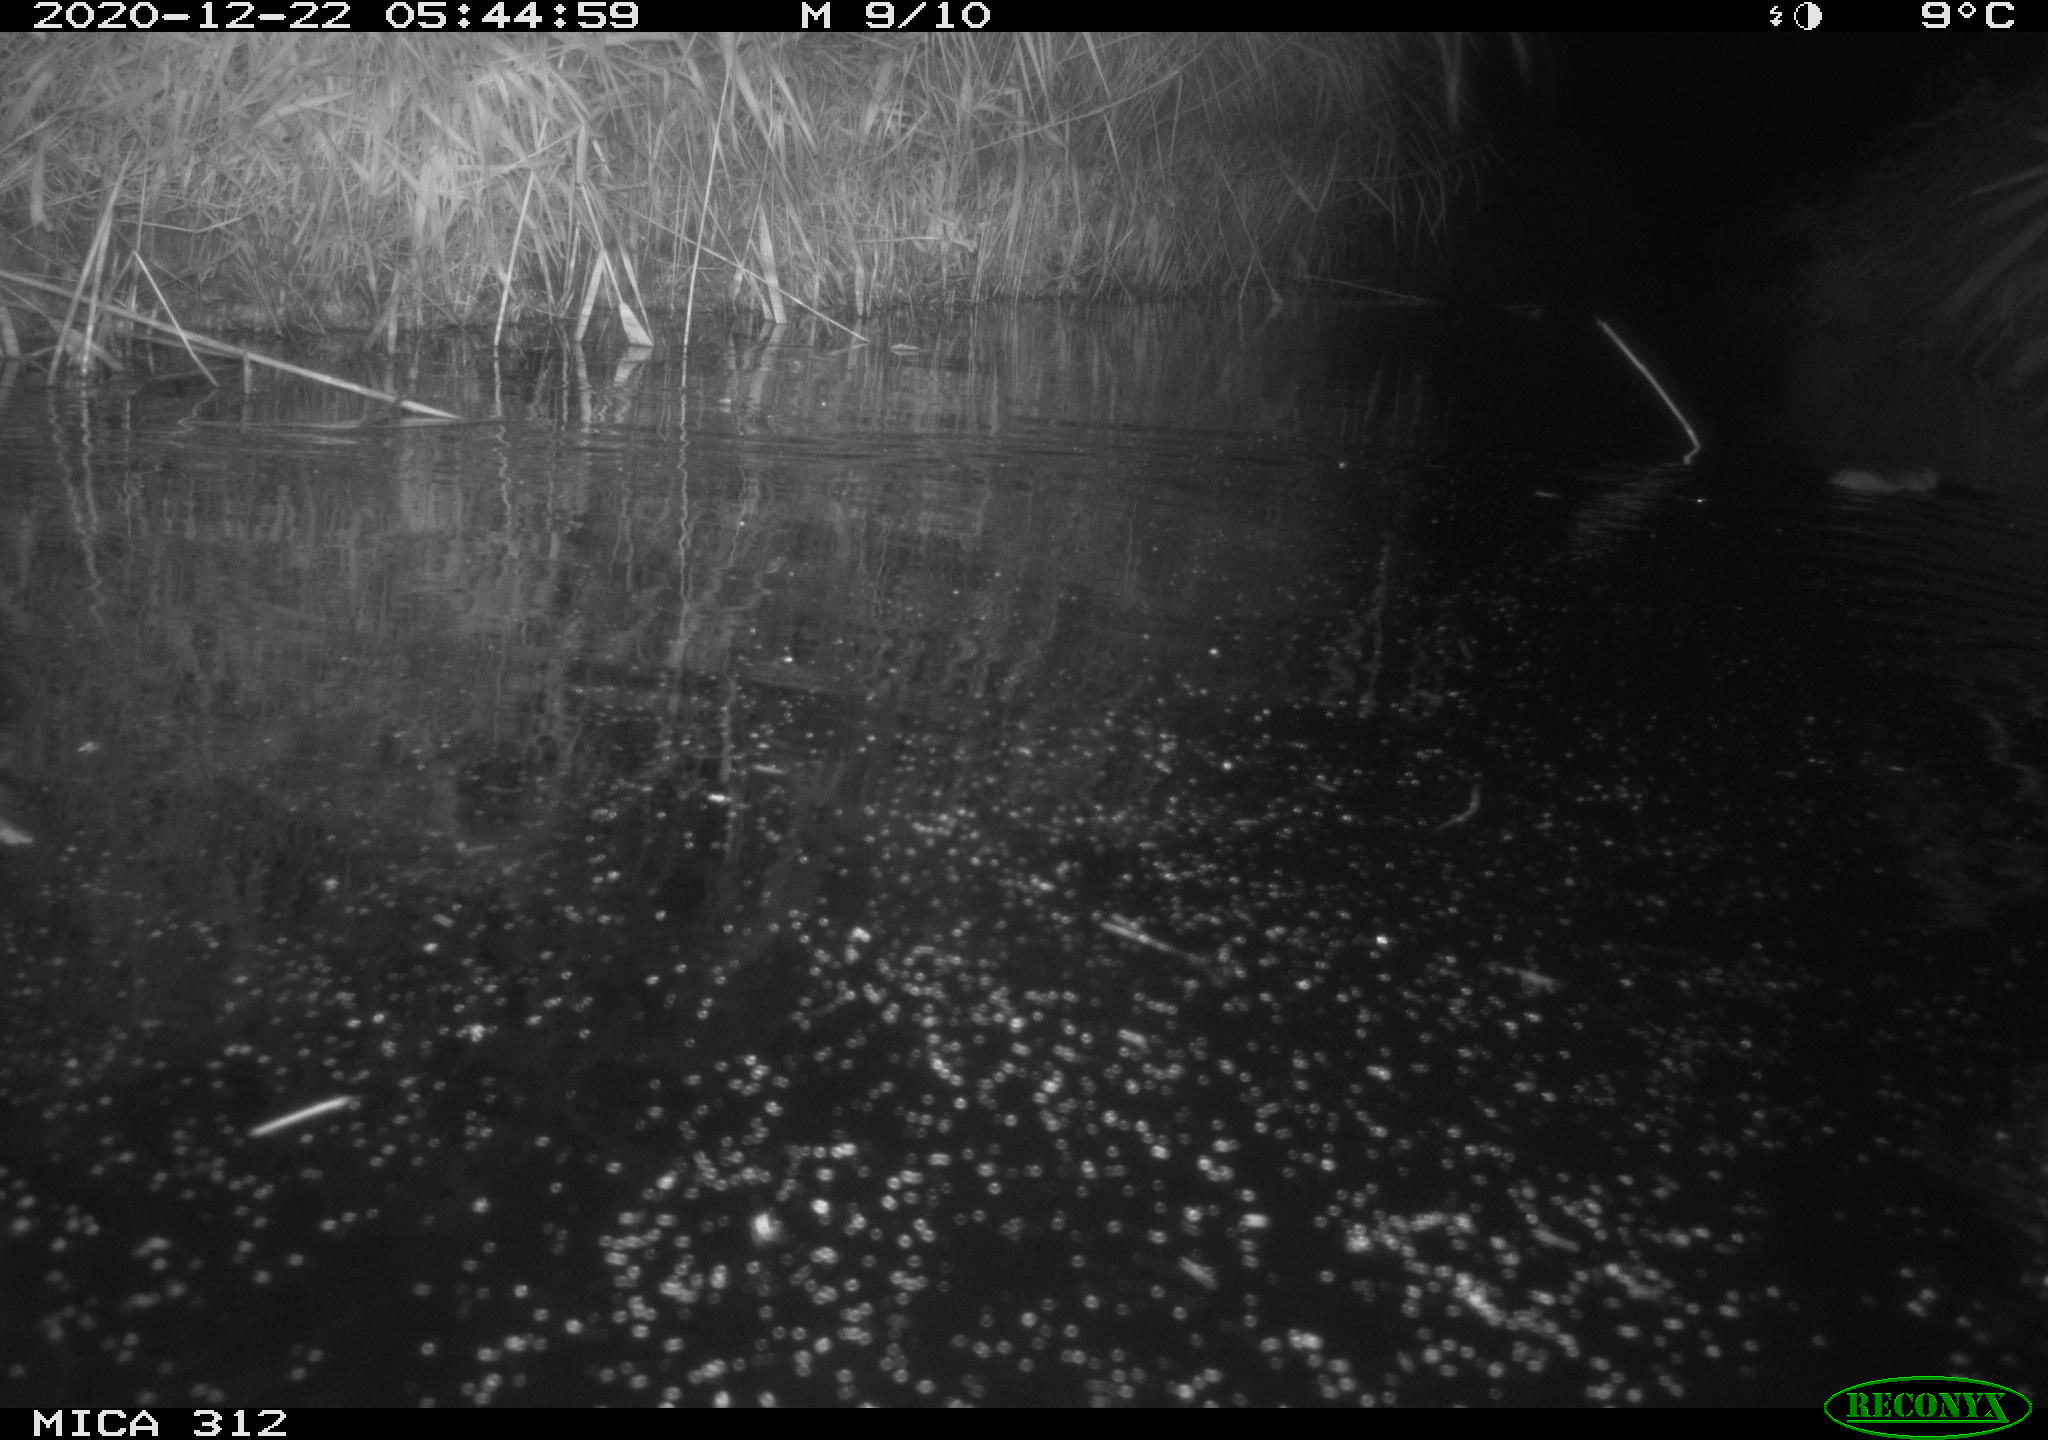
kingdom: Animalia
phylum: Chordata
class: Mammalia
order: Rodentia
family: Muridae
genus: Rattus
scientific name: Rattus norvegicus
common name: Brown rat
